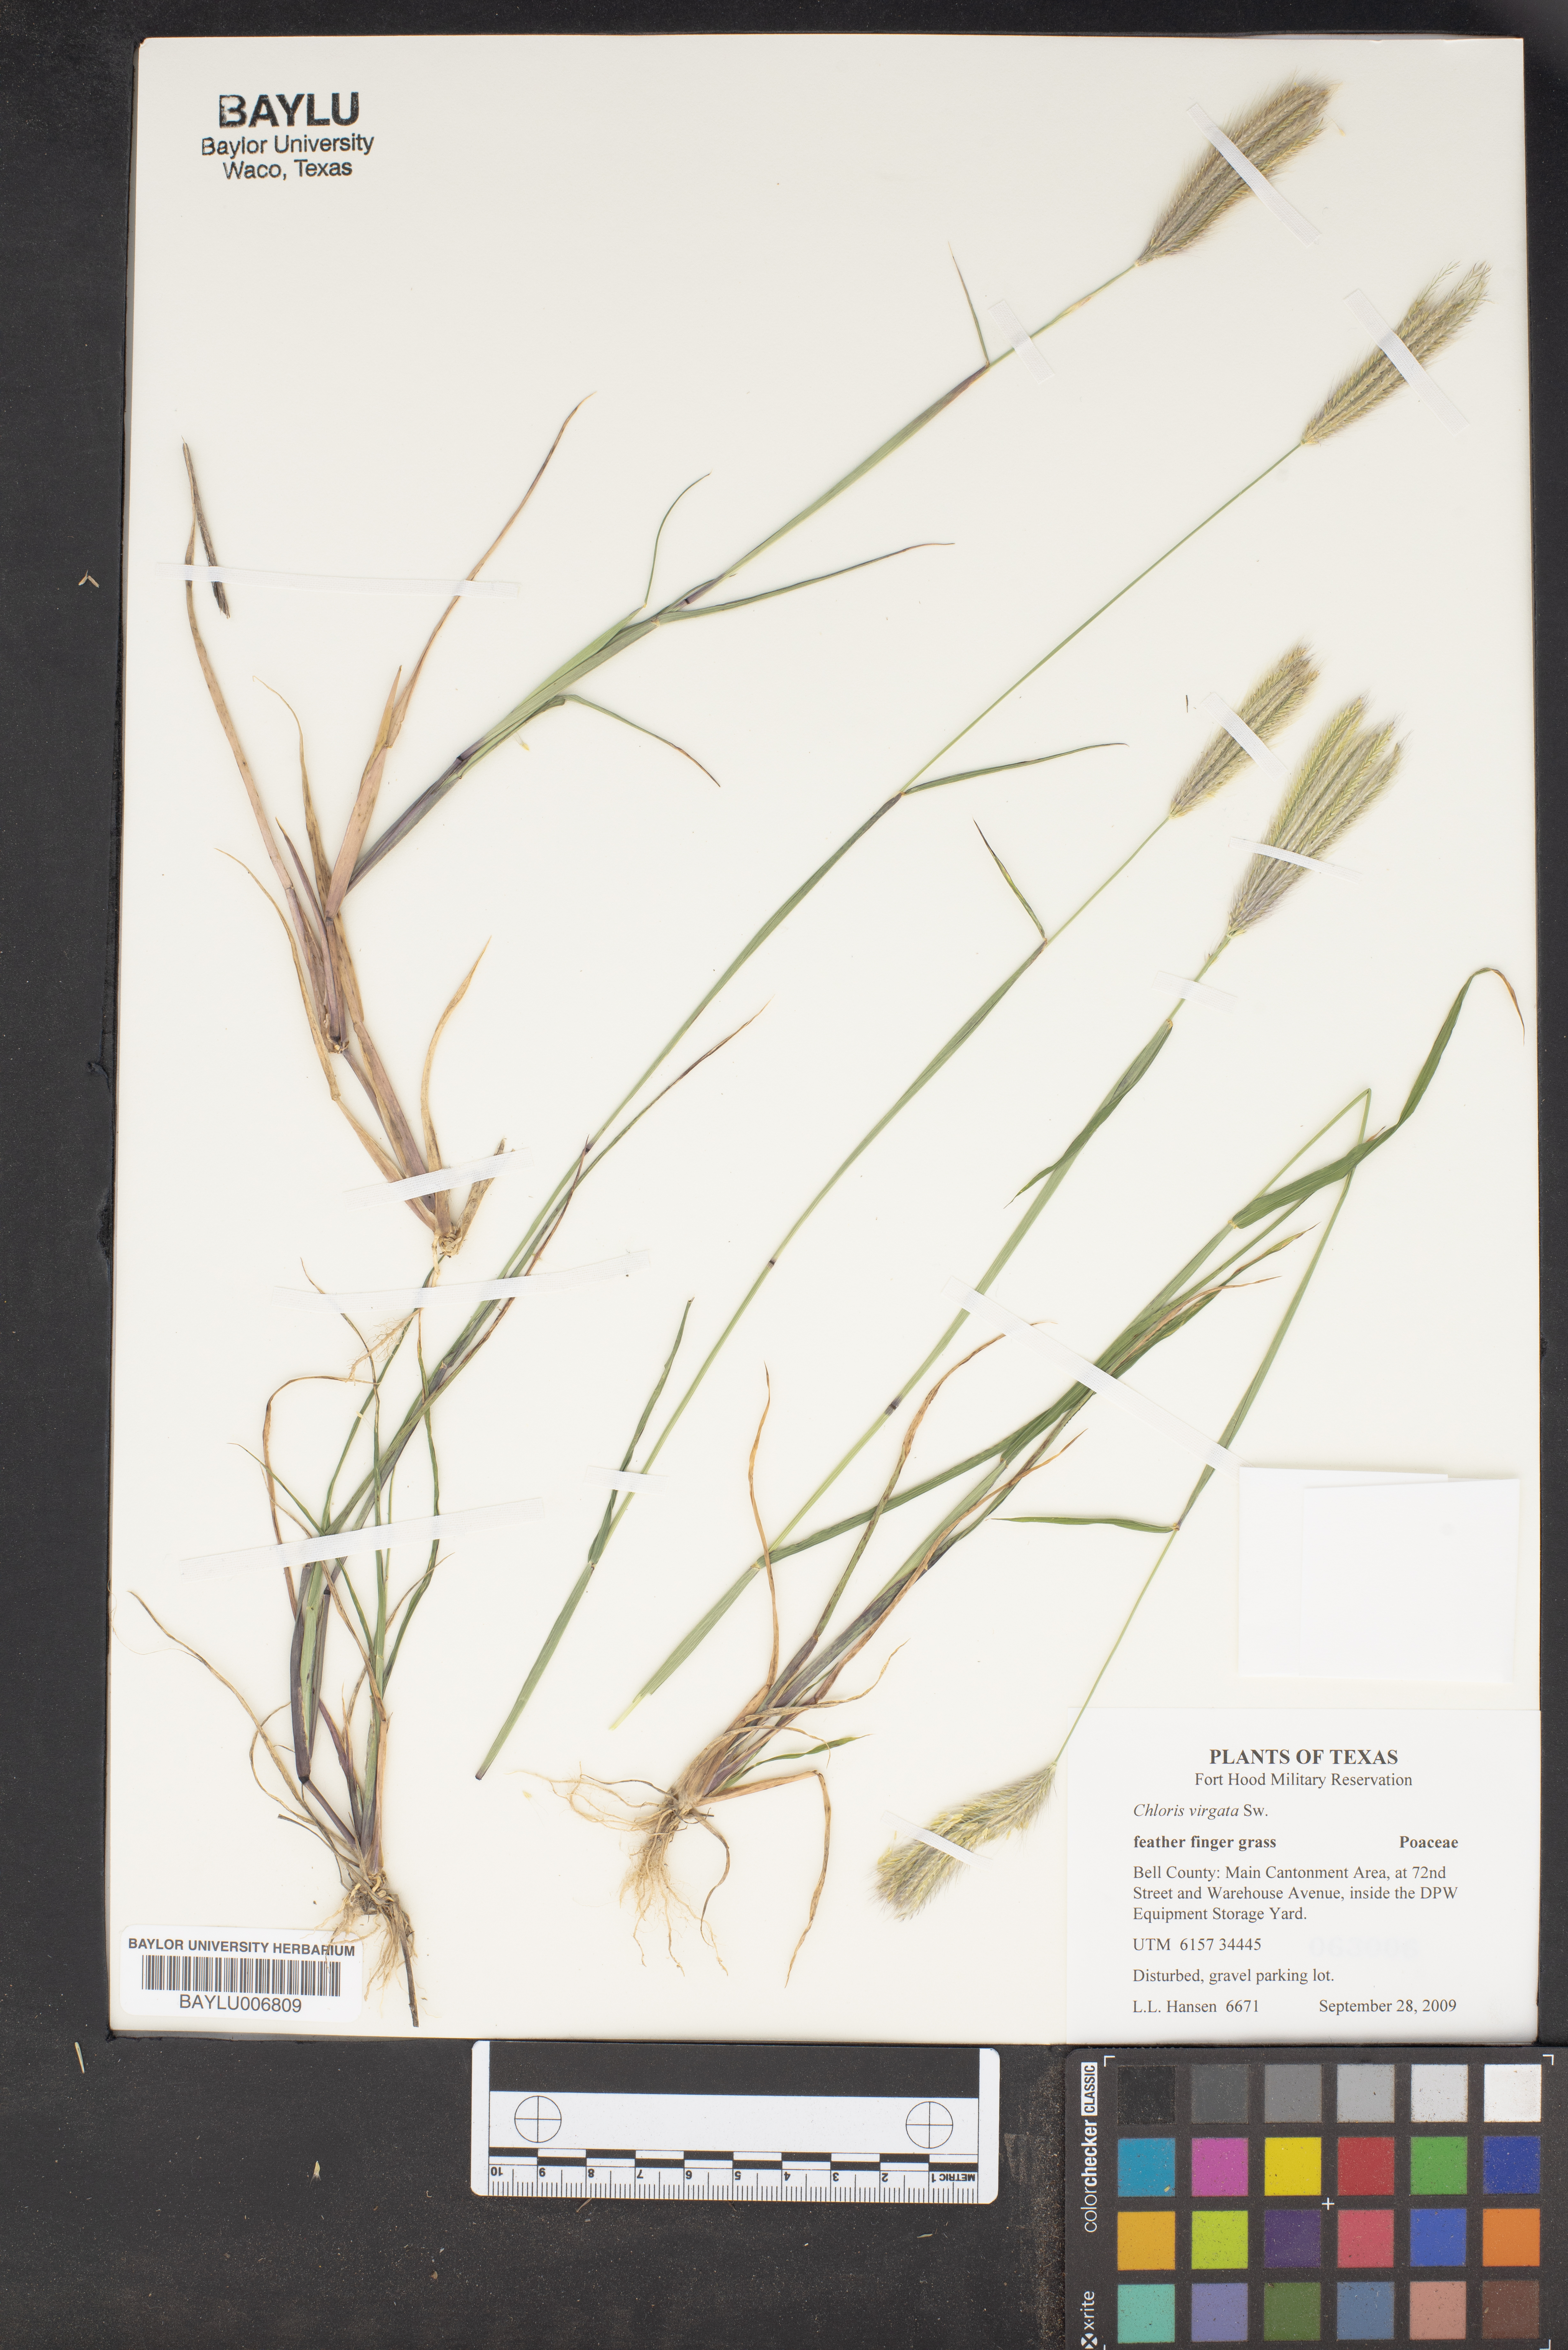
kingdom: Plantae
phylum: Tracheophyta
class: Liliopsida
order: Poales
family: Poaceae
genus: Chloris
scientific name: Chloris virgata
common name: Feathery rhodes-grass
